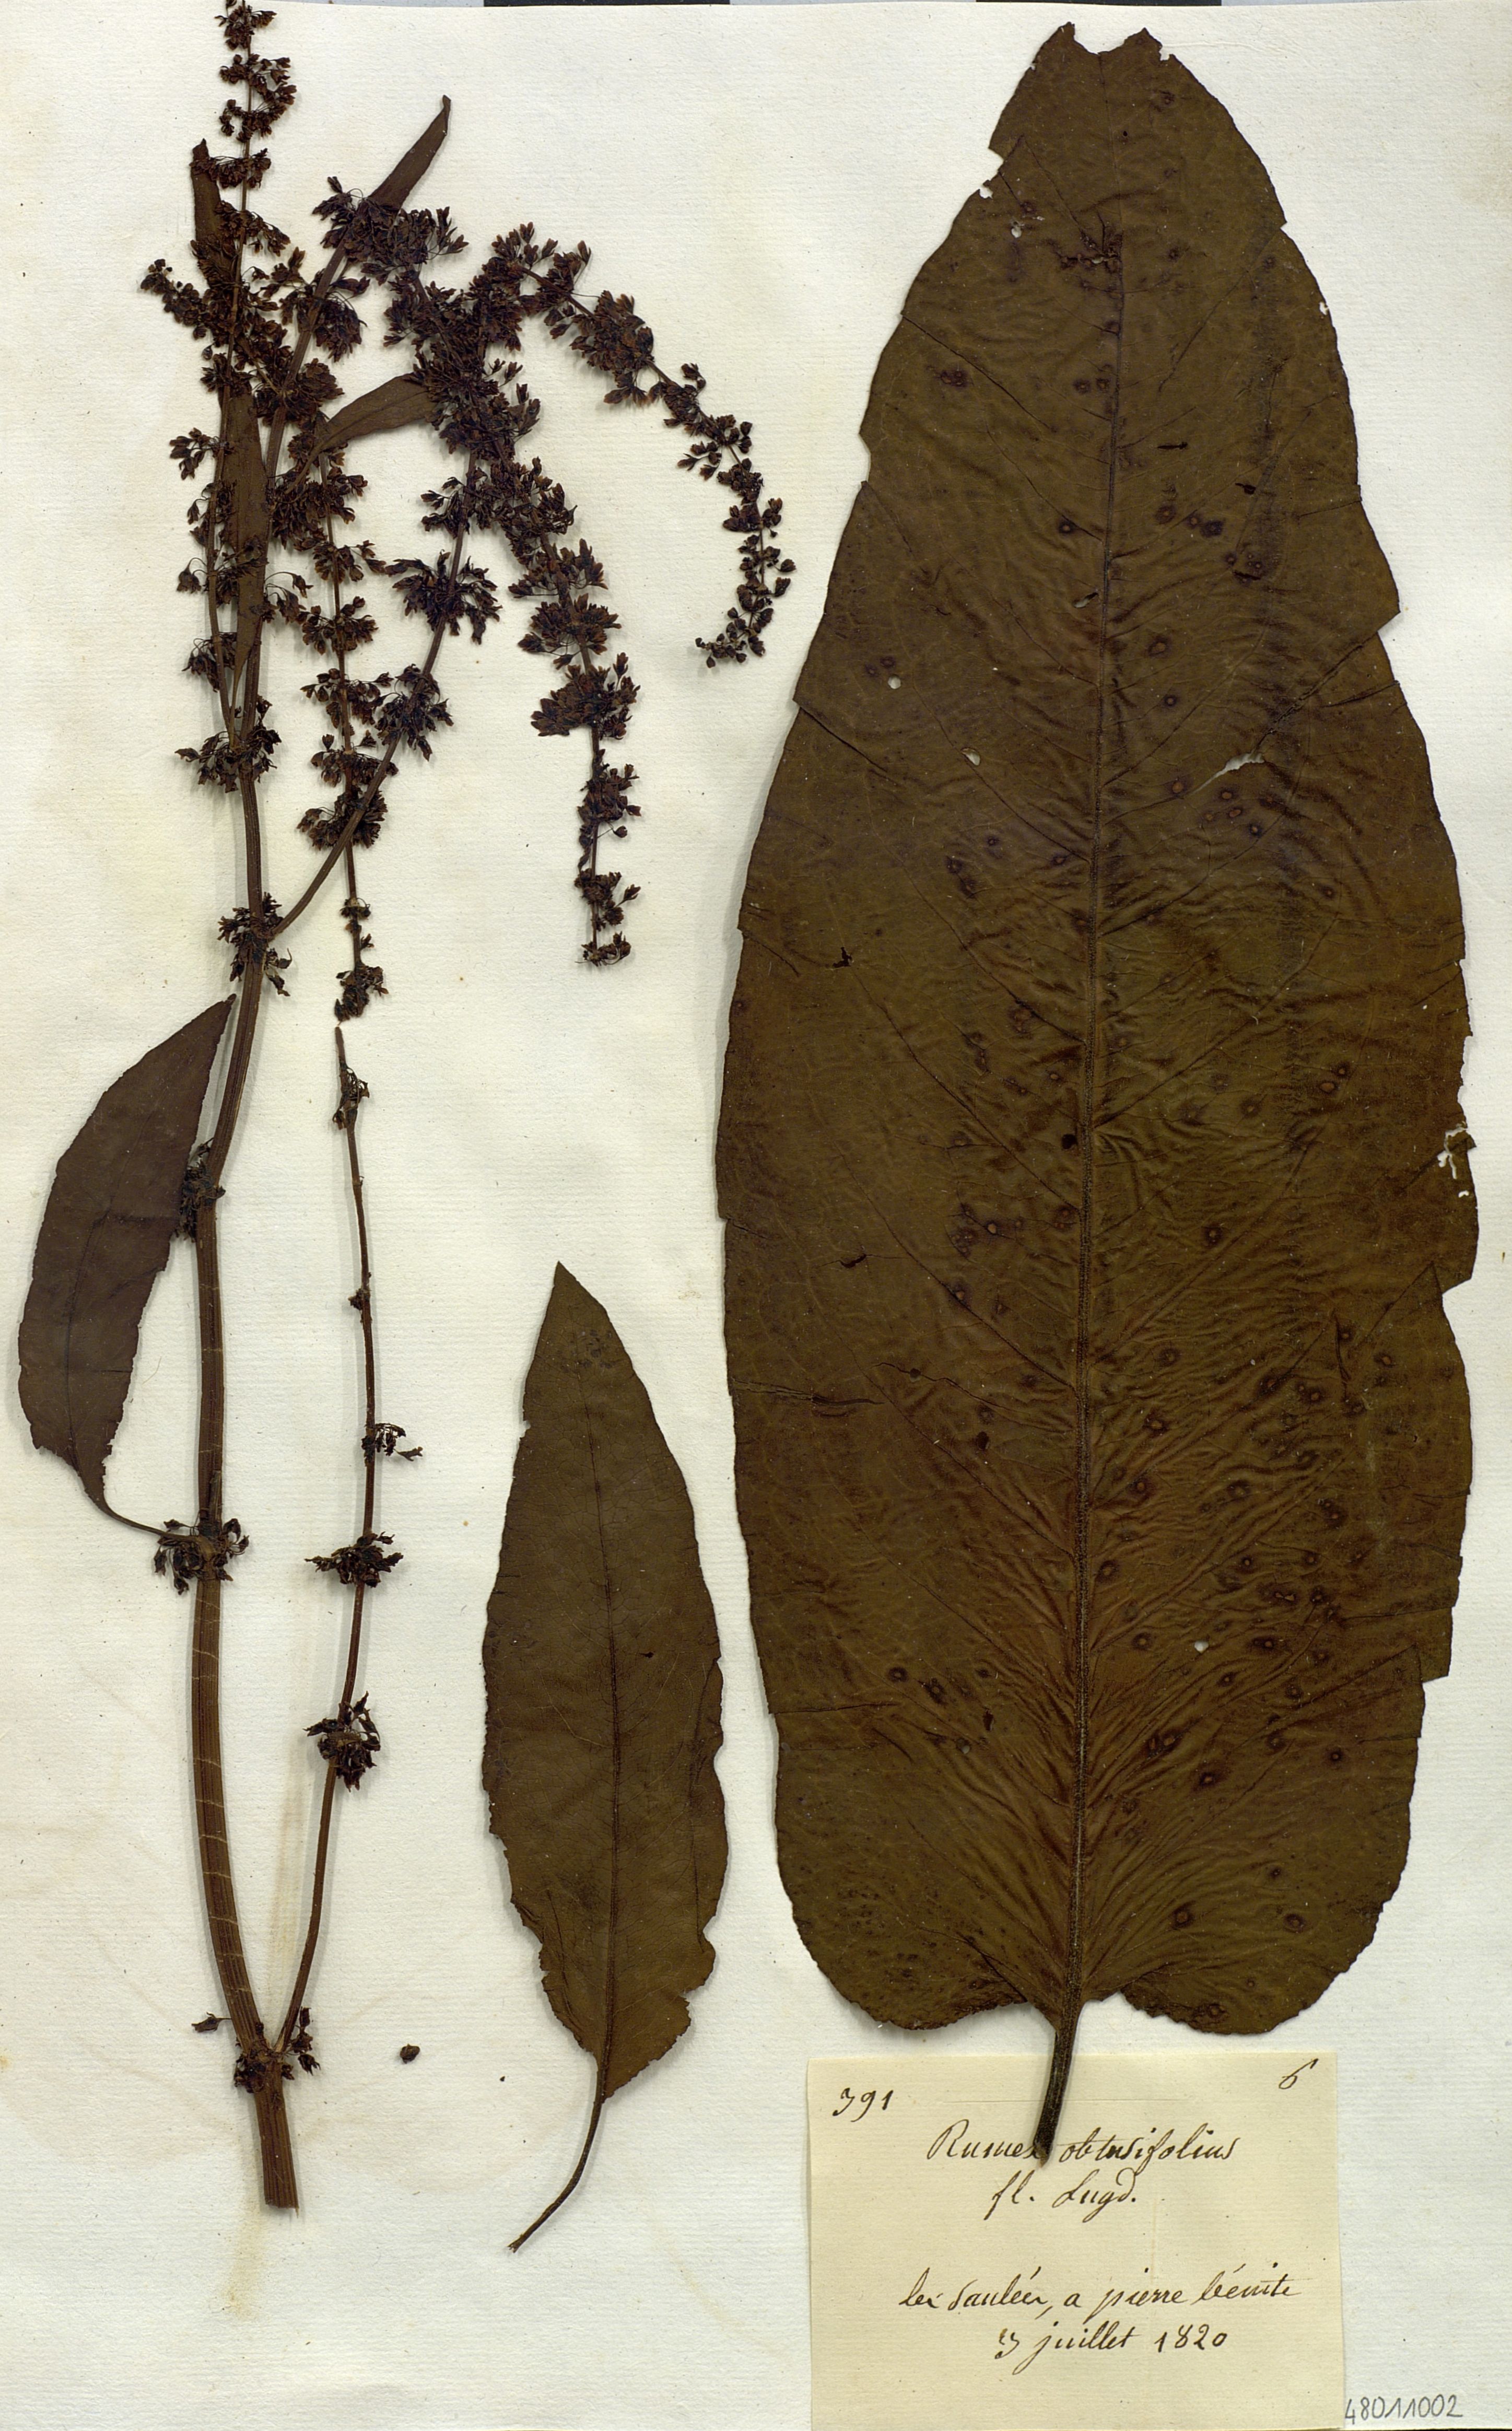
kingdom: Plantae
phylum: Tracheophyta
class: Magnoliopsida
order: Caryophyllales
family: Polygonaceae
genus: Rumex
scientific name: Rumex obtusifolius
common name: Bitter dock
